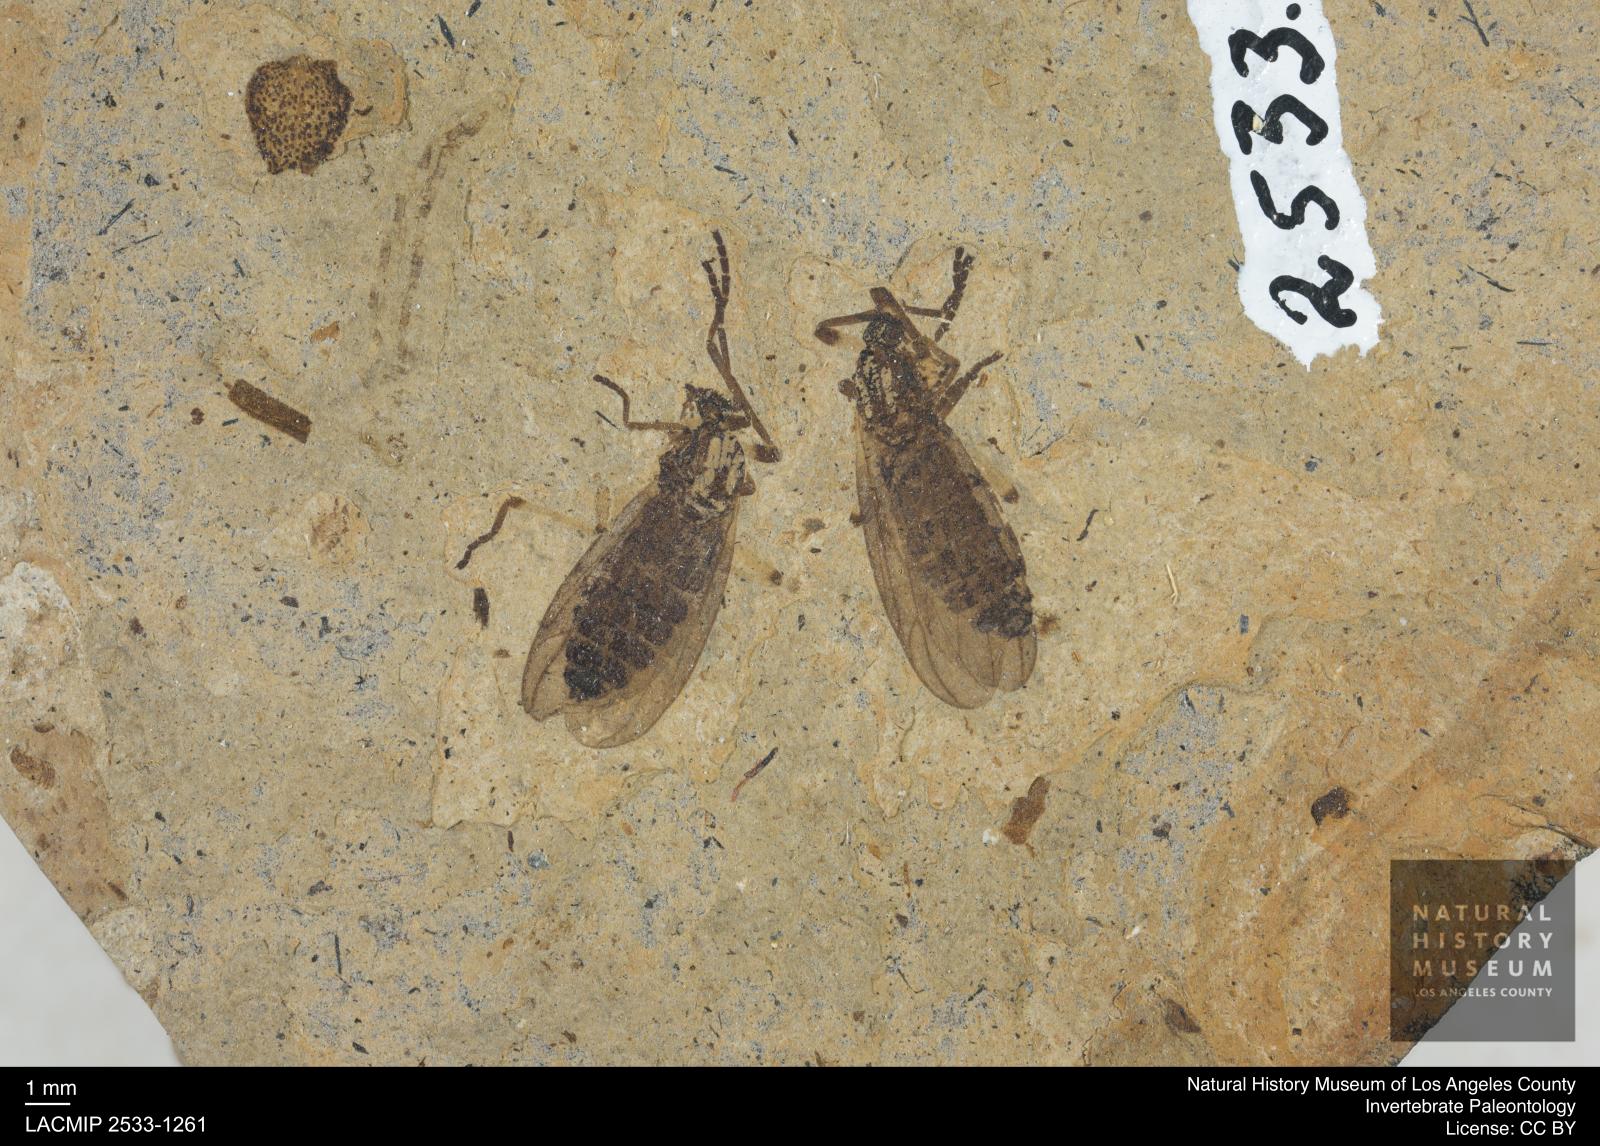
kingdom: Animalia
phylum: Arthropoda
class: Insecta
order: Diptera
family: Bibionidae
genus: Plecia
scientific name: Plecia hypogaea
